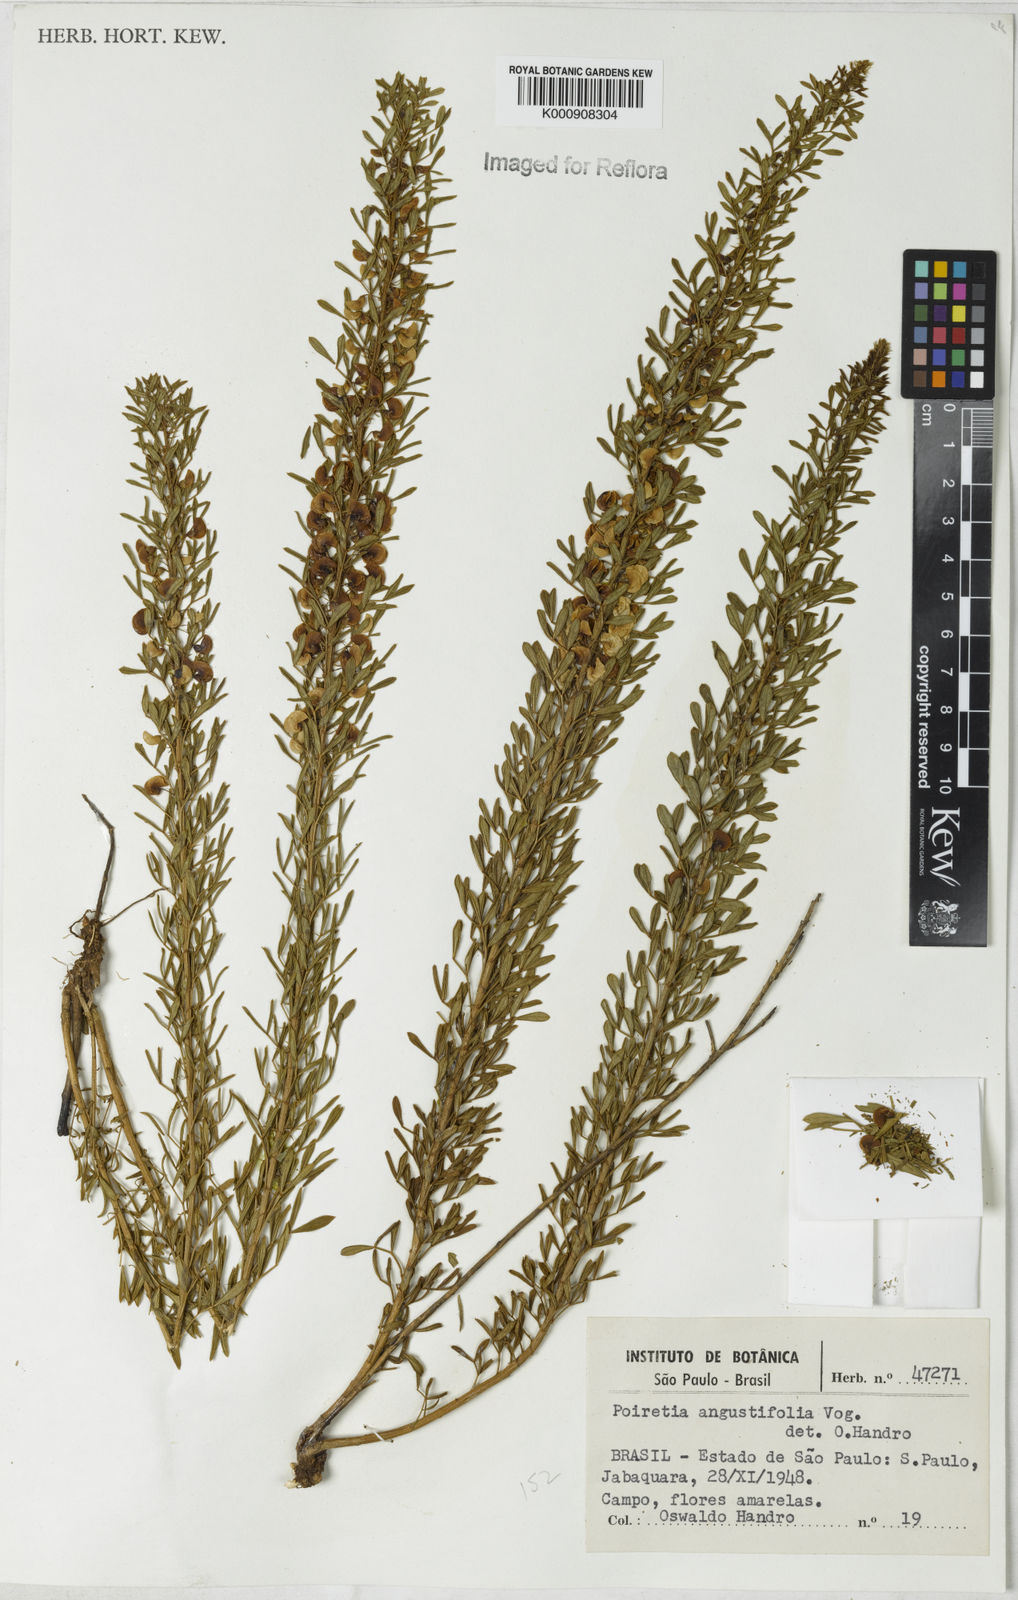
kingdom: Plantae
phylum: Tracheophyta
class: Magnoliopsida
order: Fabales
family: Fabaceae
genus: Poiretia
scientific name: Poiretia angustifolia
